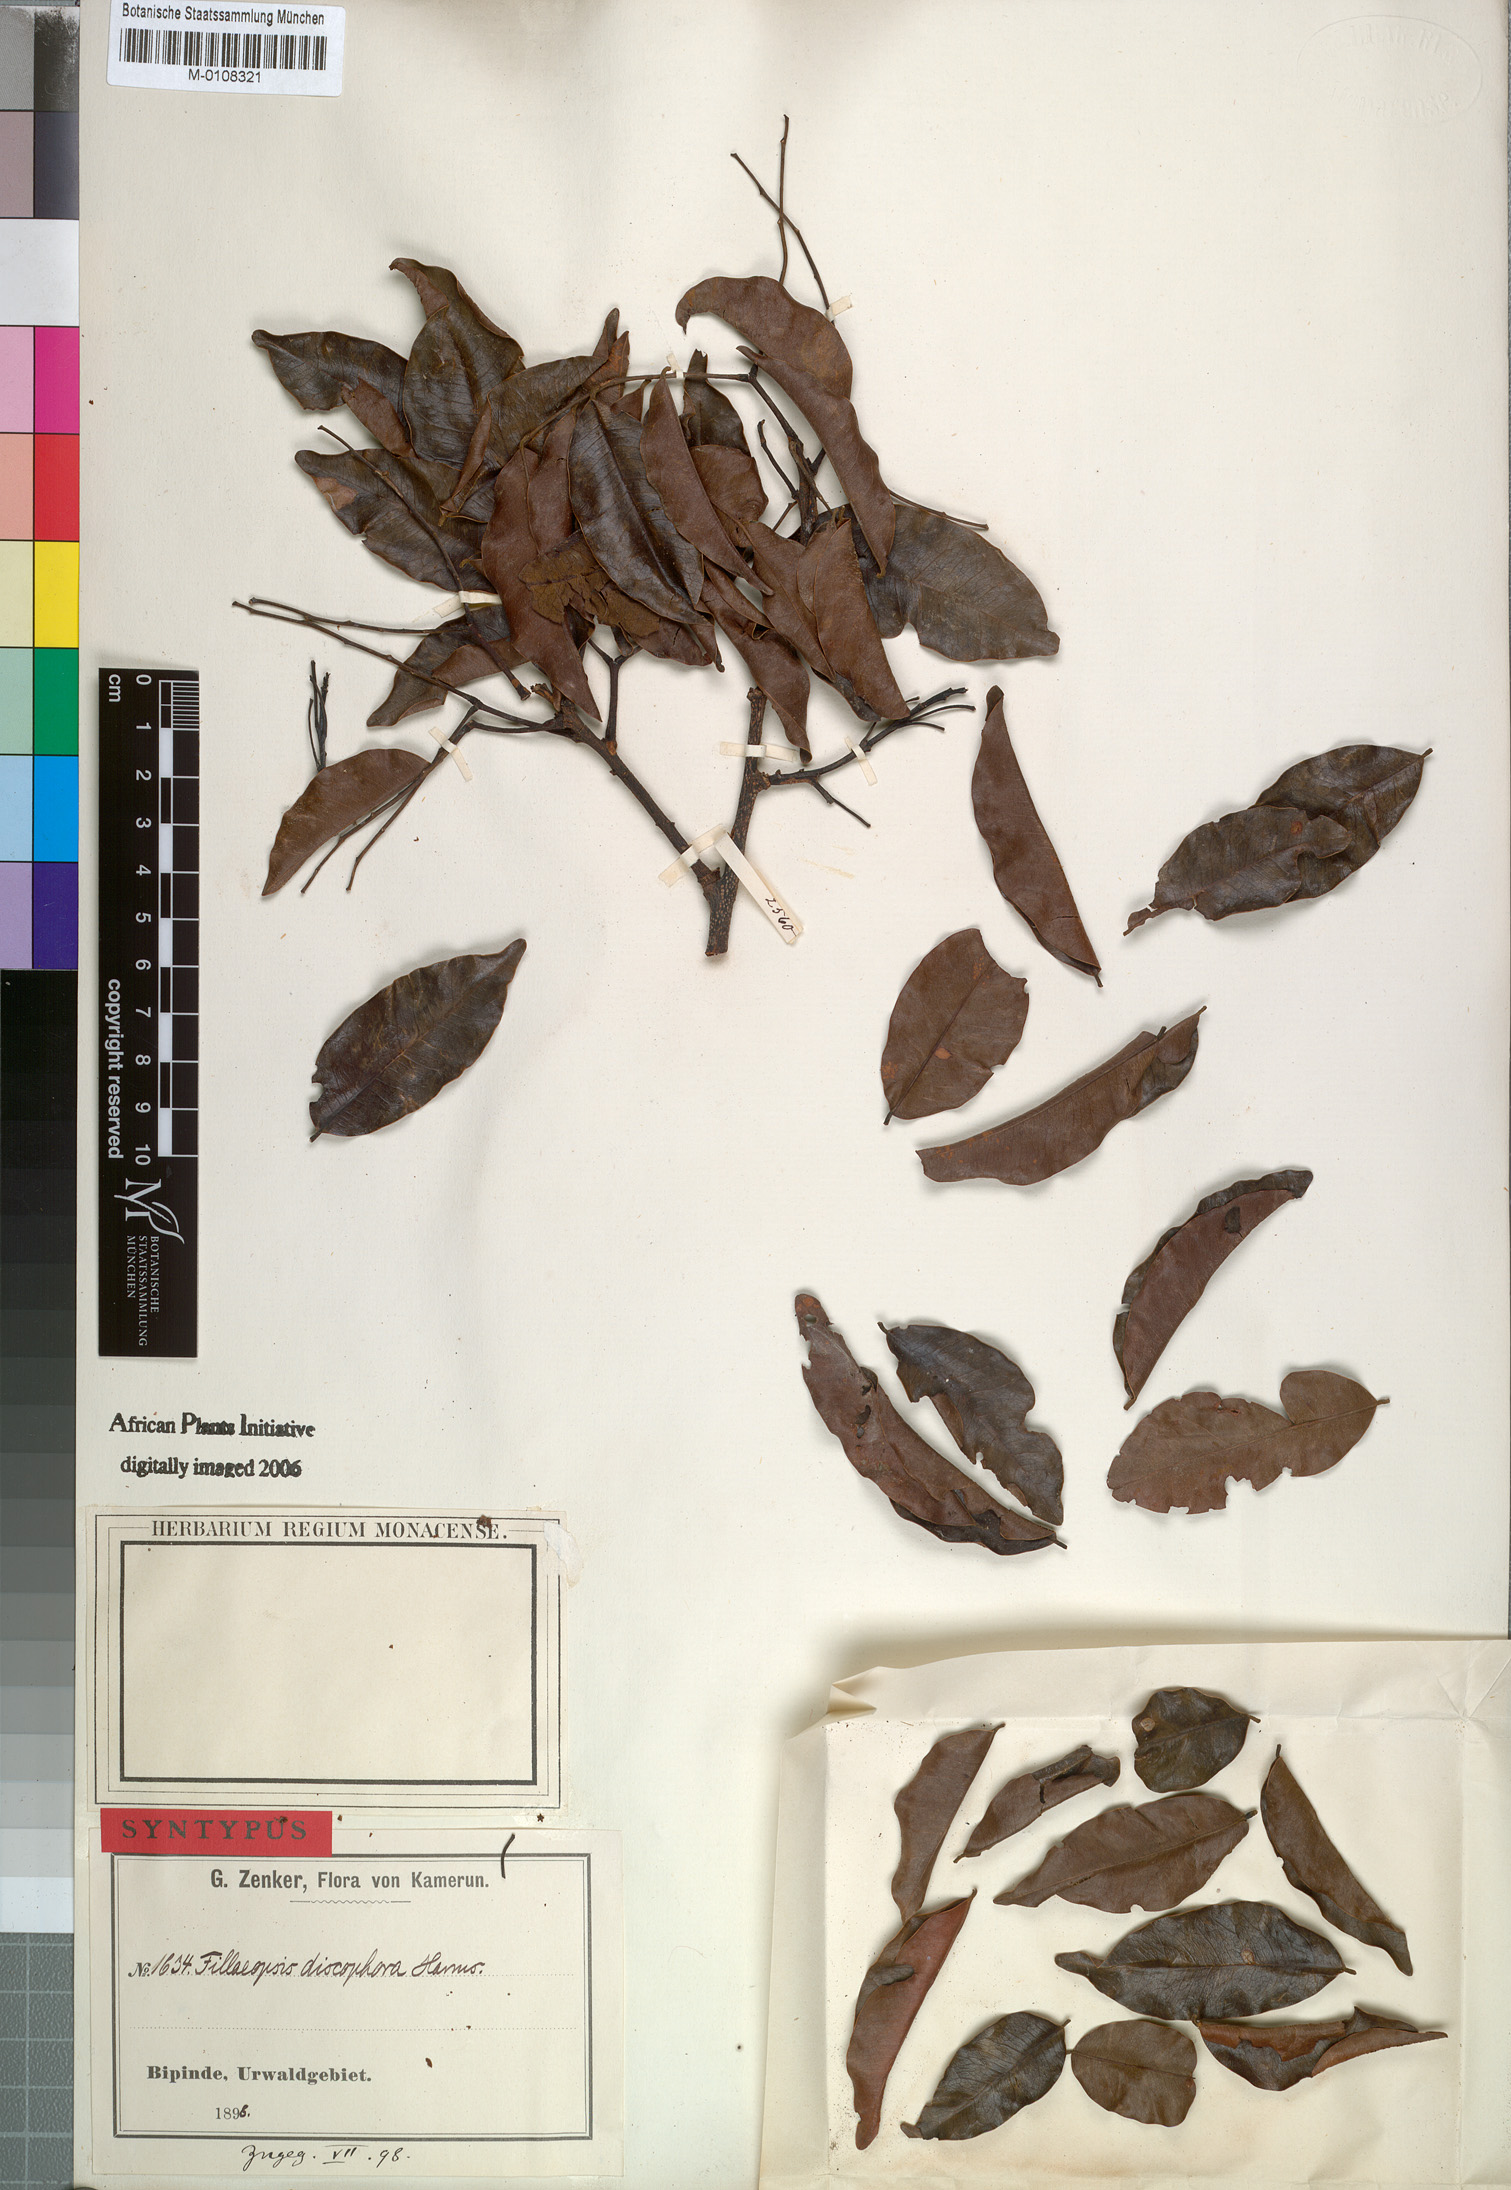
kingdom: Plantae
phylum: Tracheophyta
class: Magnoliopsida
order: Fabales
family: Fabaceae
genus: Fillaeopsis
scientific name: Fillaeopsis discophora
